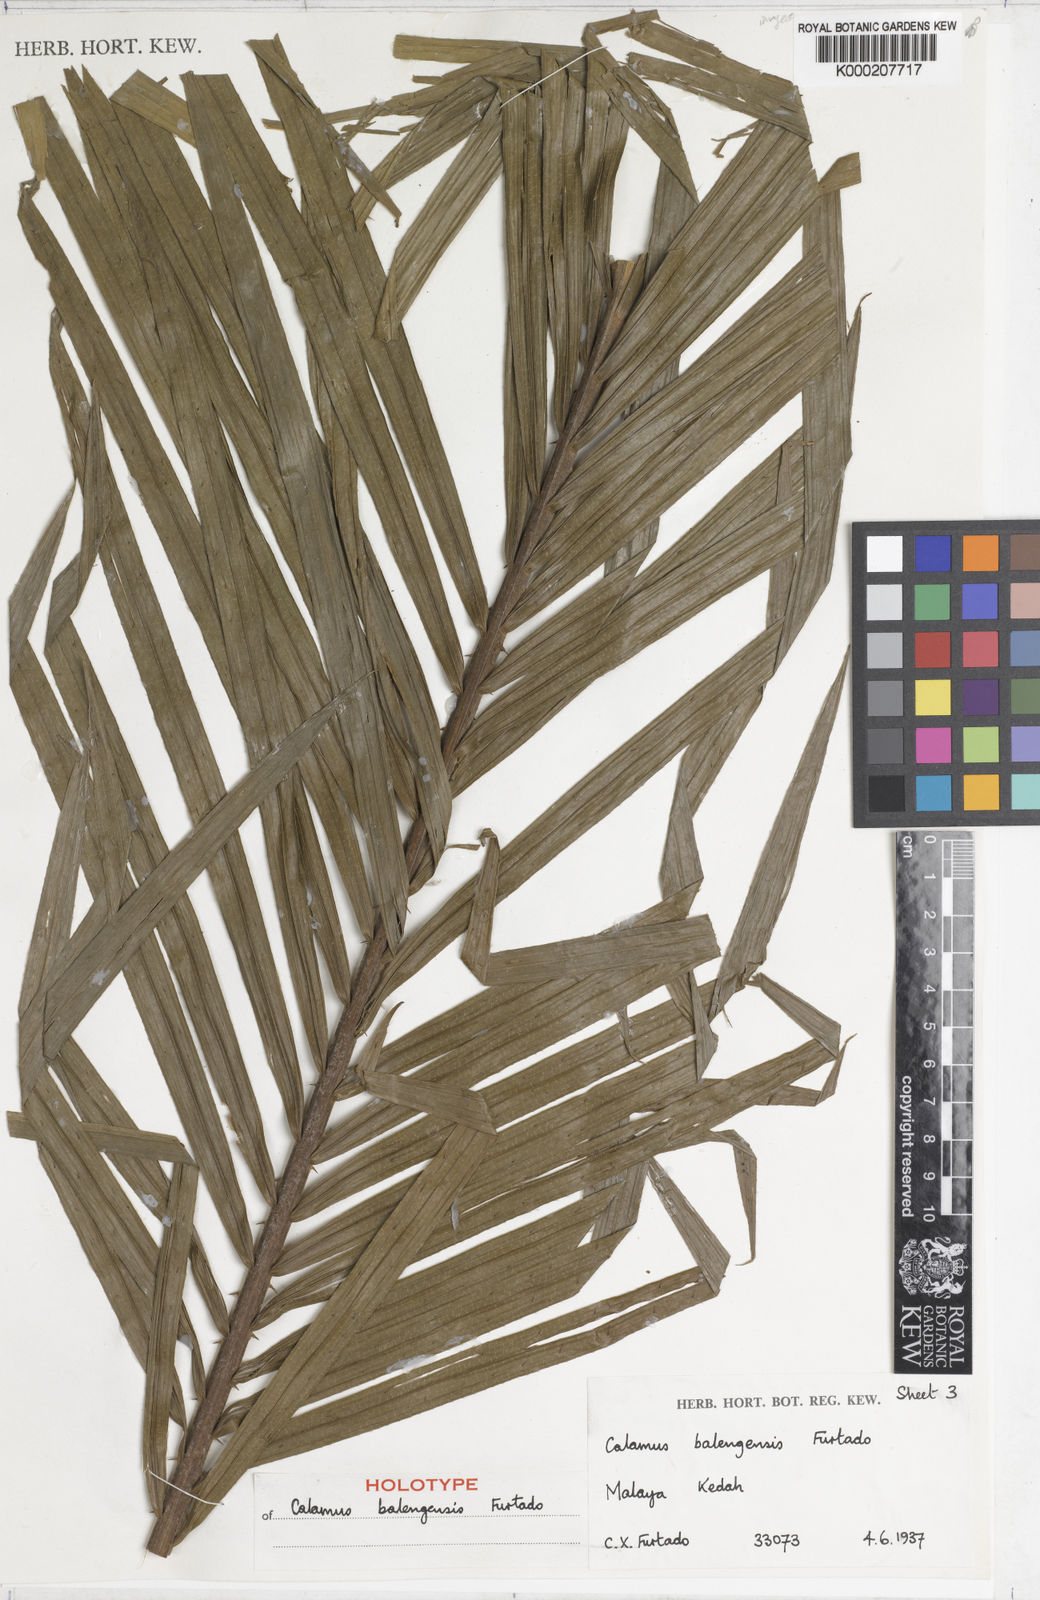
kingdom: Plantae
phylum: Tracheophyta
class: Liliopsida
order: Arecales
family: Arecaceae
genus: Calamus
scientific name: Calamus balingensis
